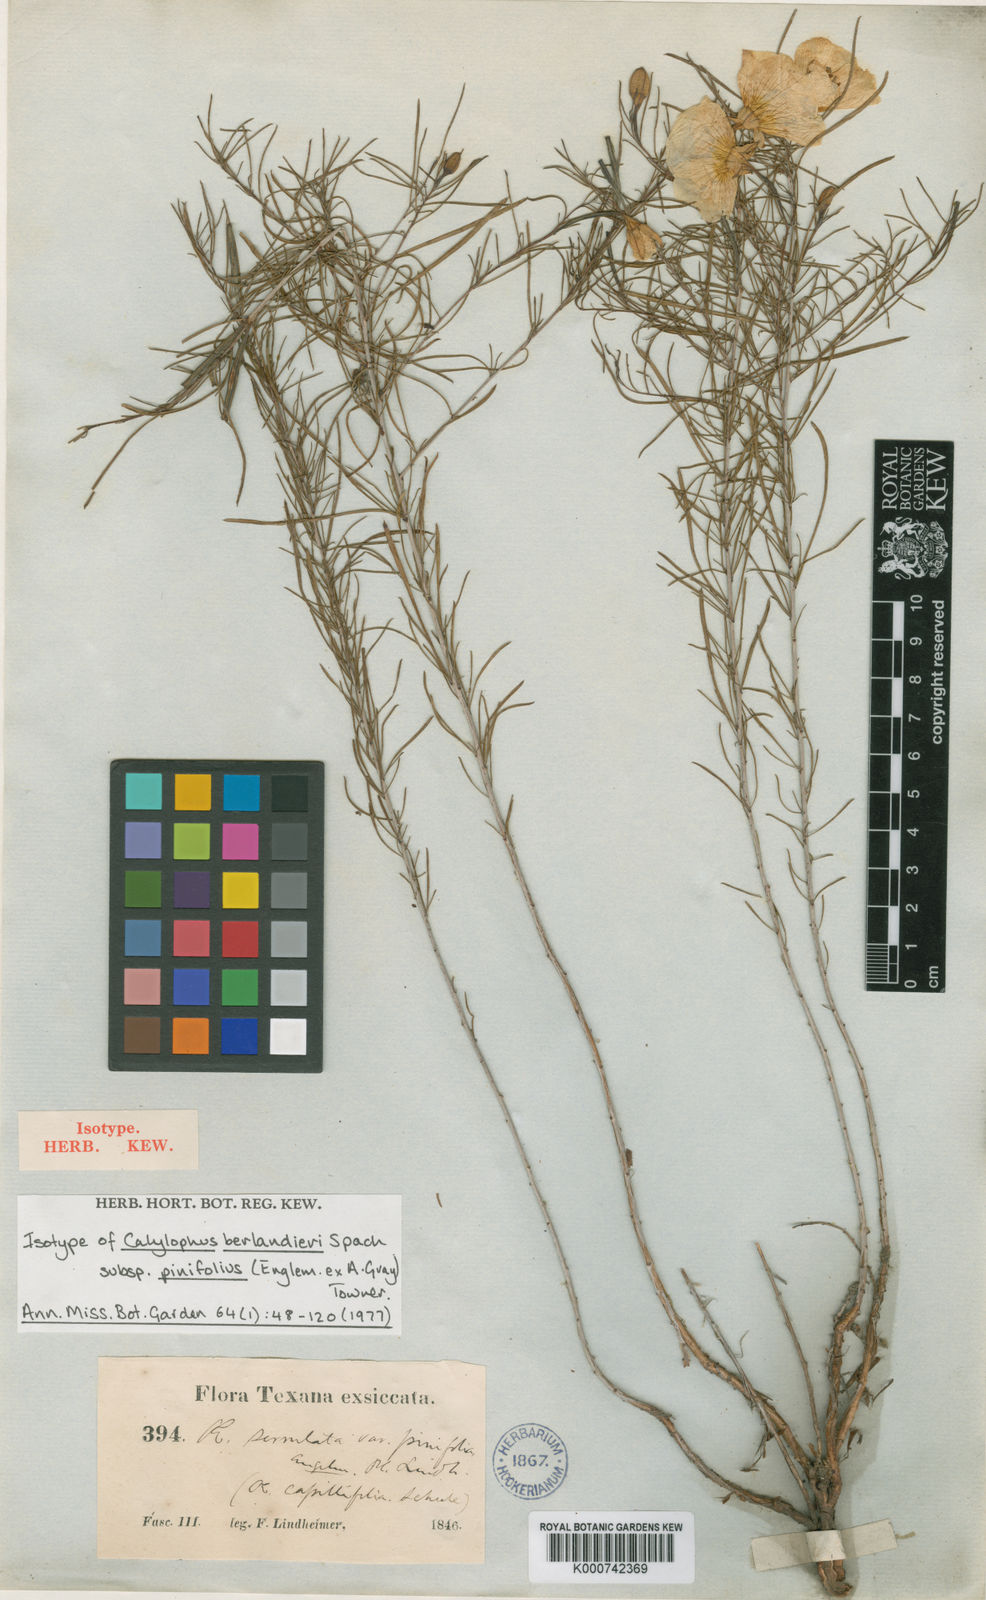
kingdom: Plantae
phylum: Tracheophyta
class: Magnoliopsida
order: Myrtales
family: Onagraceae
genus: Oenothera
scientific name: Oenothera capillifolia
